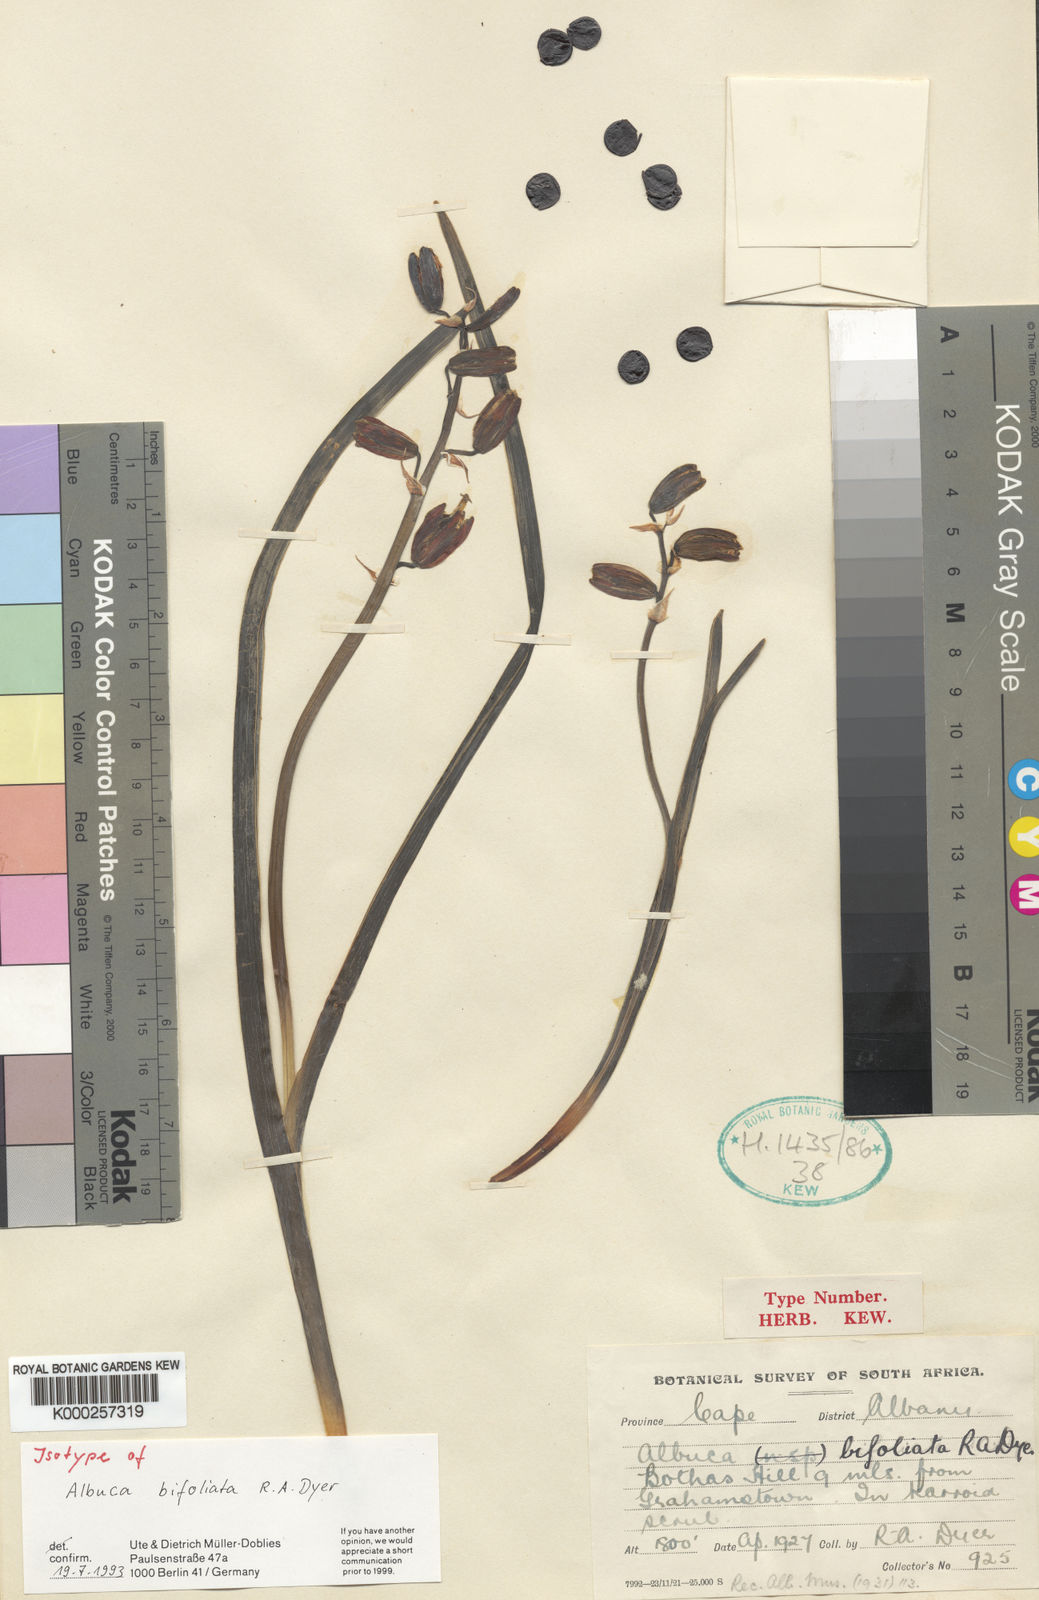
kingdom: Plantae
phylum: Tracheophyta
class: Liliopsida
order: Asparagales
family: Asparagaceae
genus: Albuca
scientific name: Albuca bifoliata
